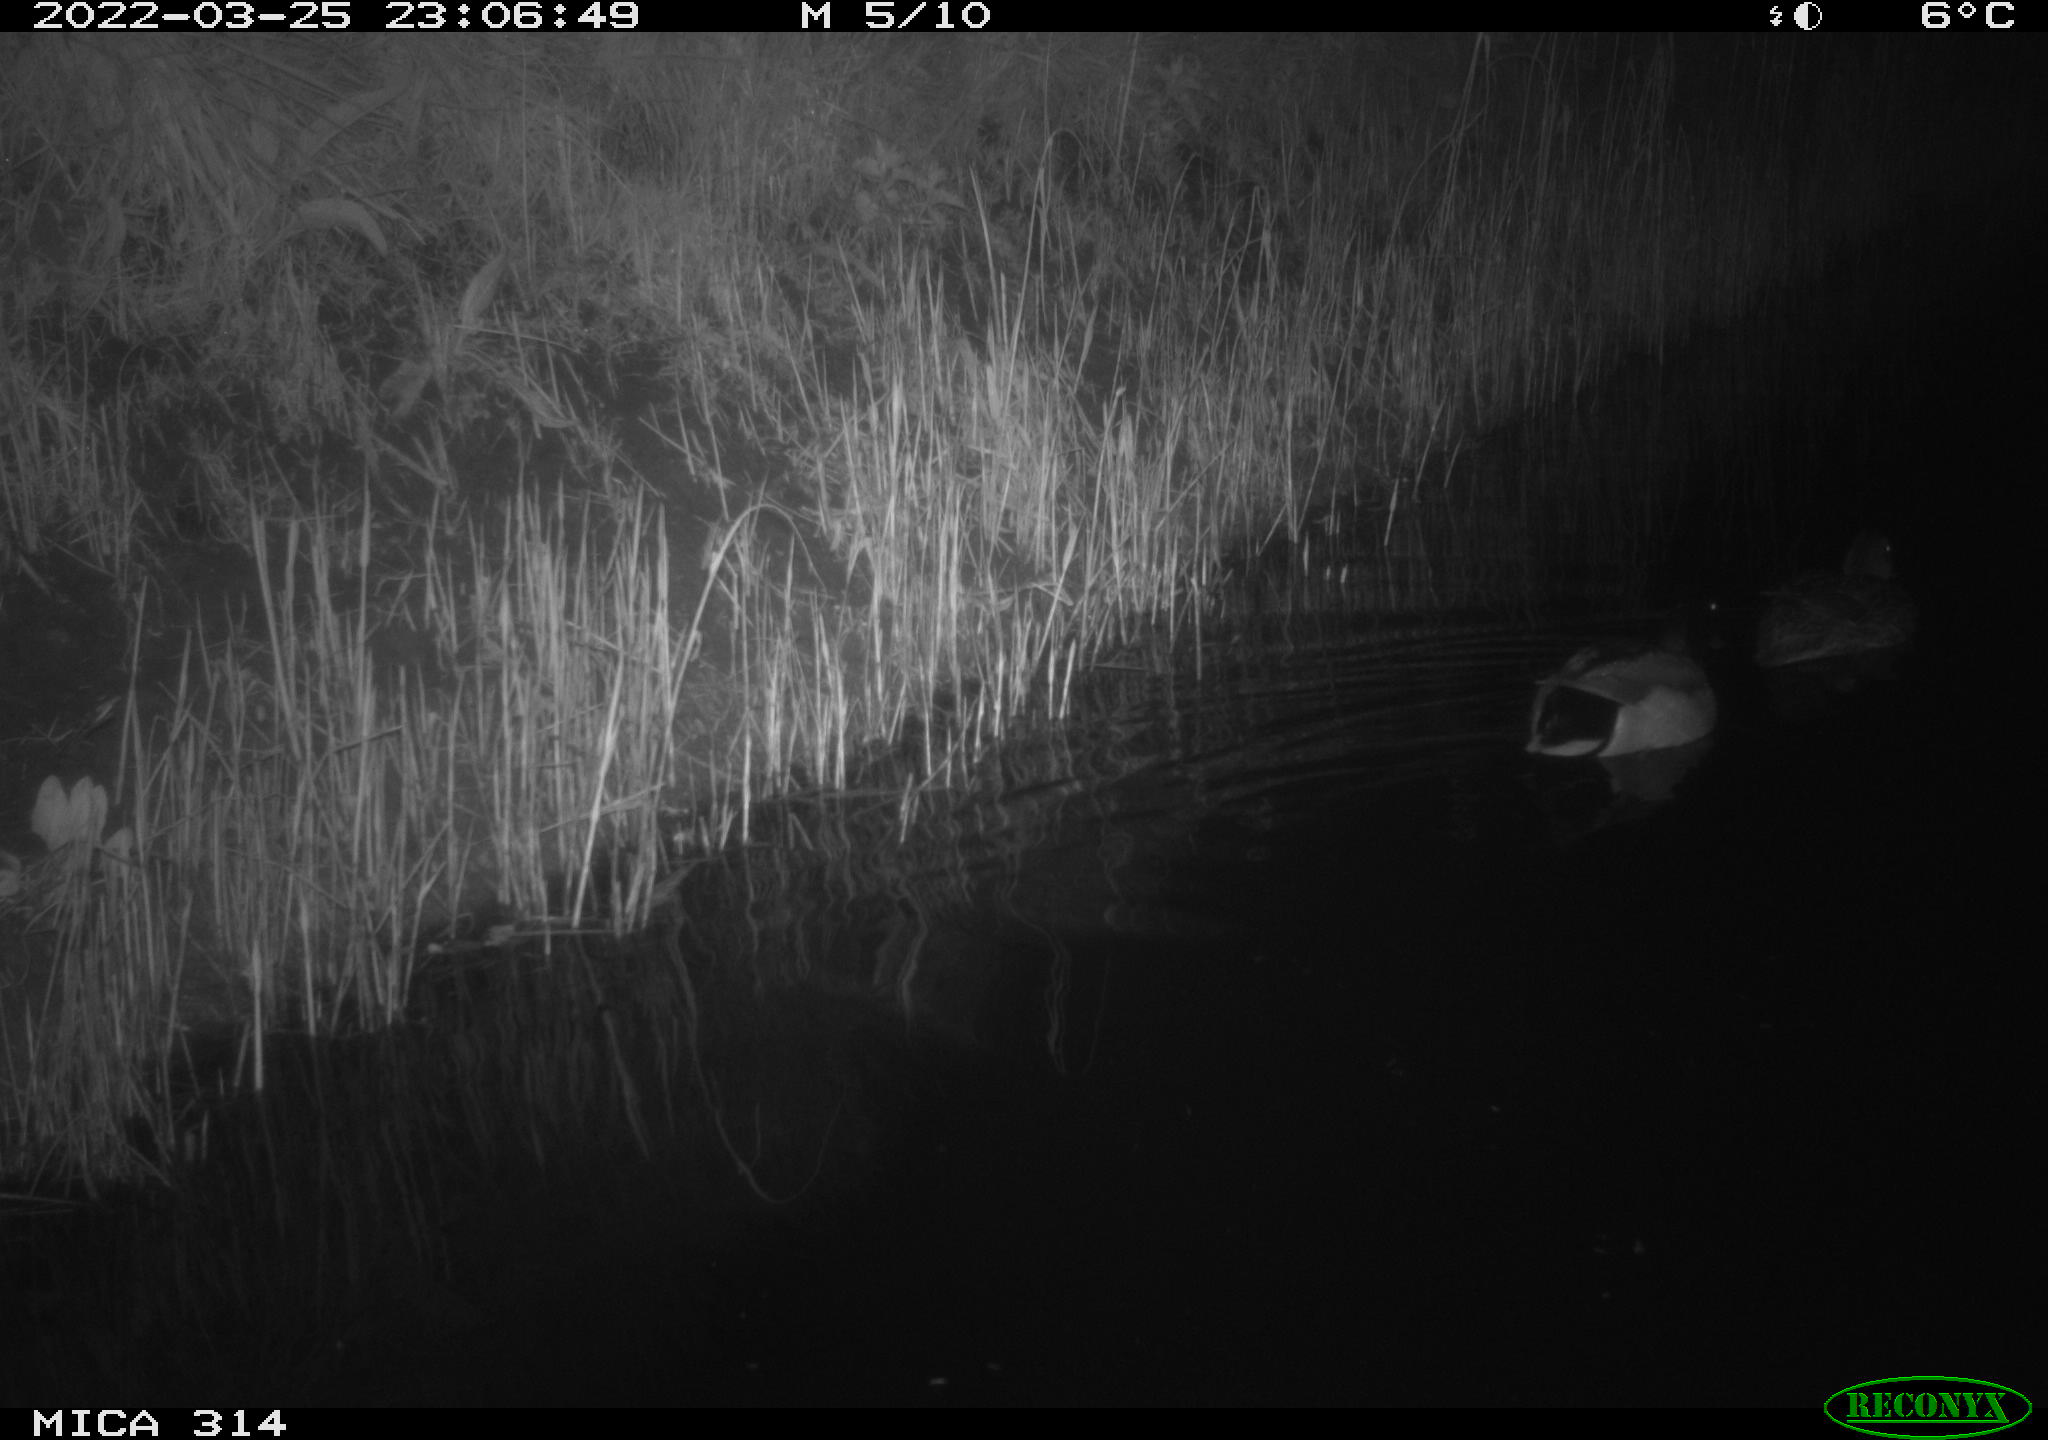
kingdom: Animalia
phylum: Chordata
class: Aves
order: Anseriformes
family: Anatidae
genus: Anas
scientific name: Anas platyrhynchos
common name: Mallard
